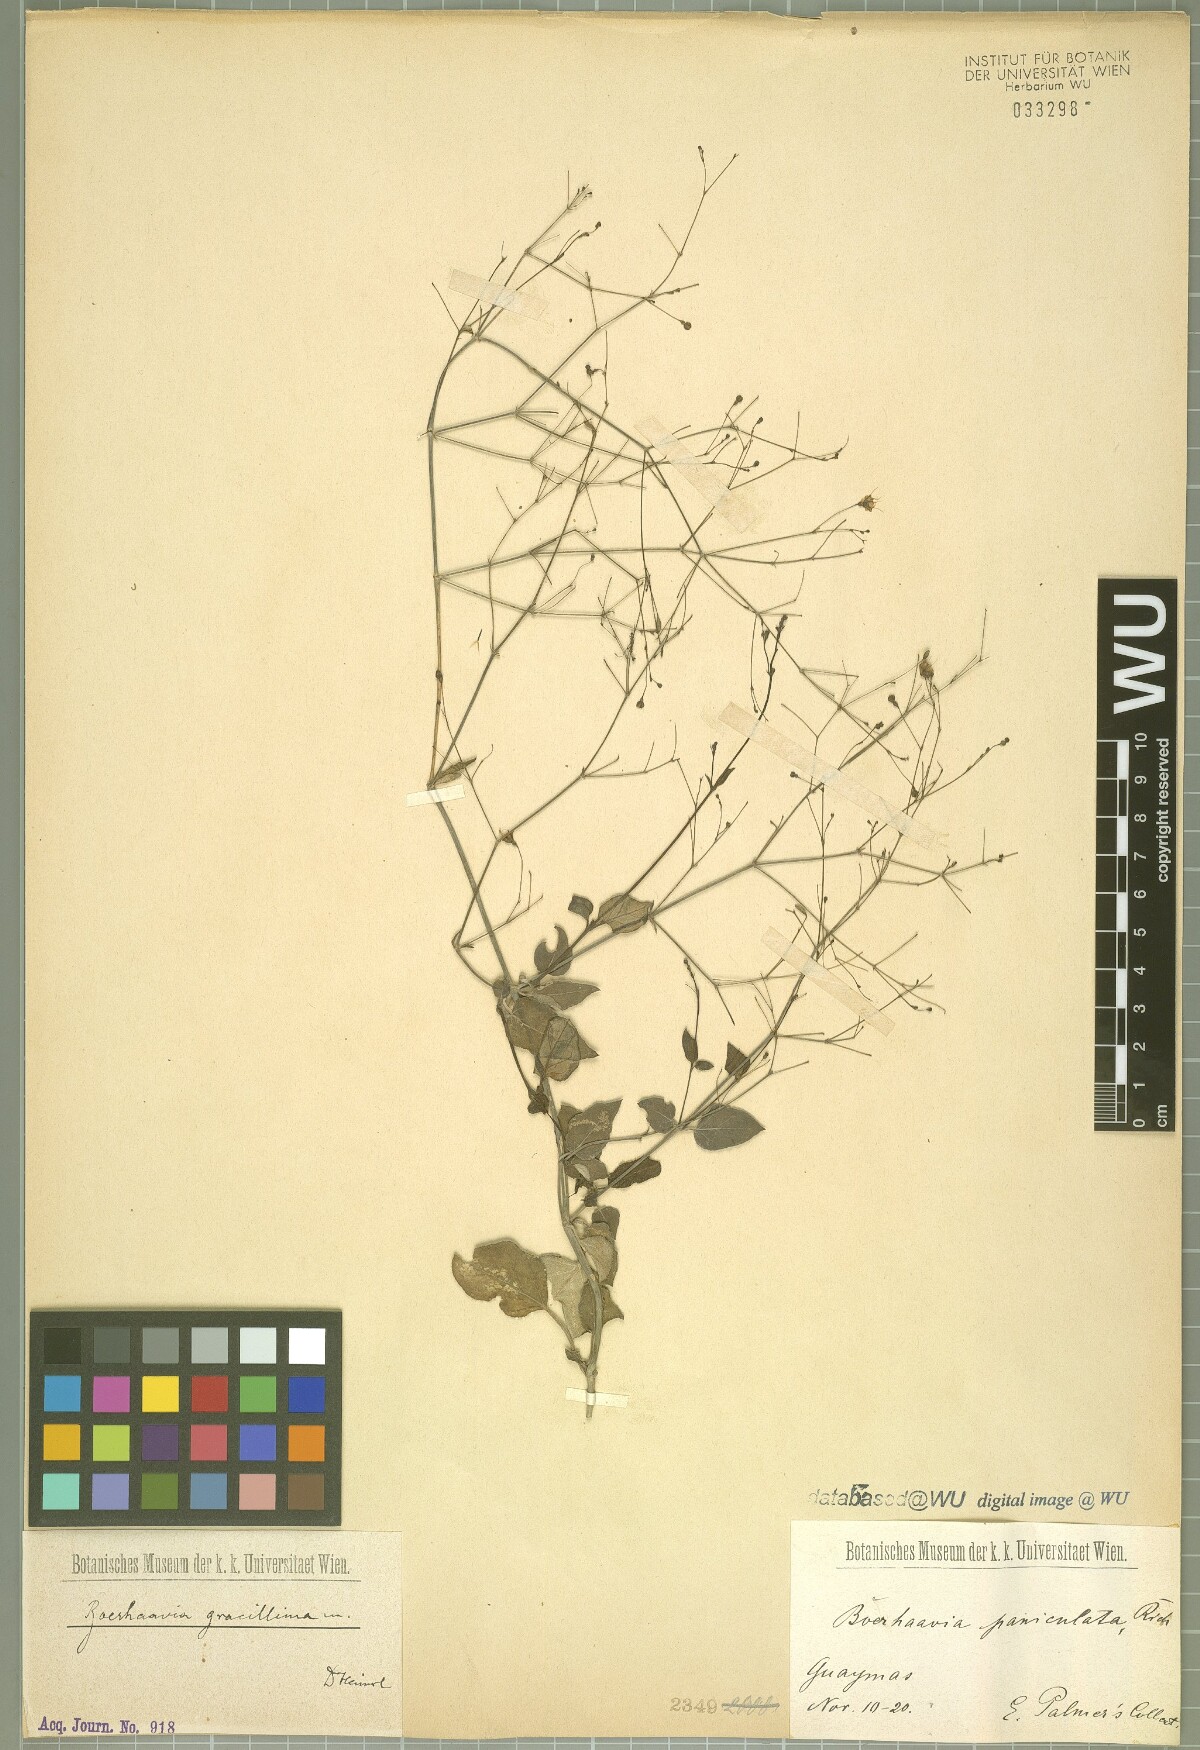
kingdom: Plantae
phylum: Tracheophyta
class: Magnoliopsida
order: Caryophyllales
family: Nyctaginaceae
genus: Boerhavia
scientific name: Boerhavia gracillima
